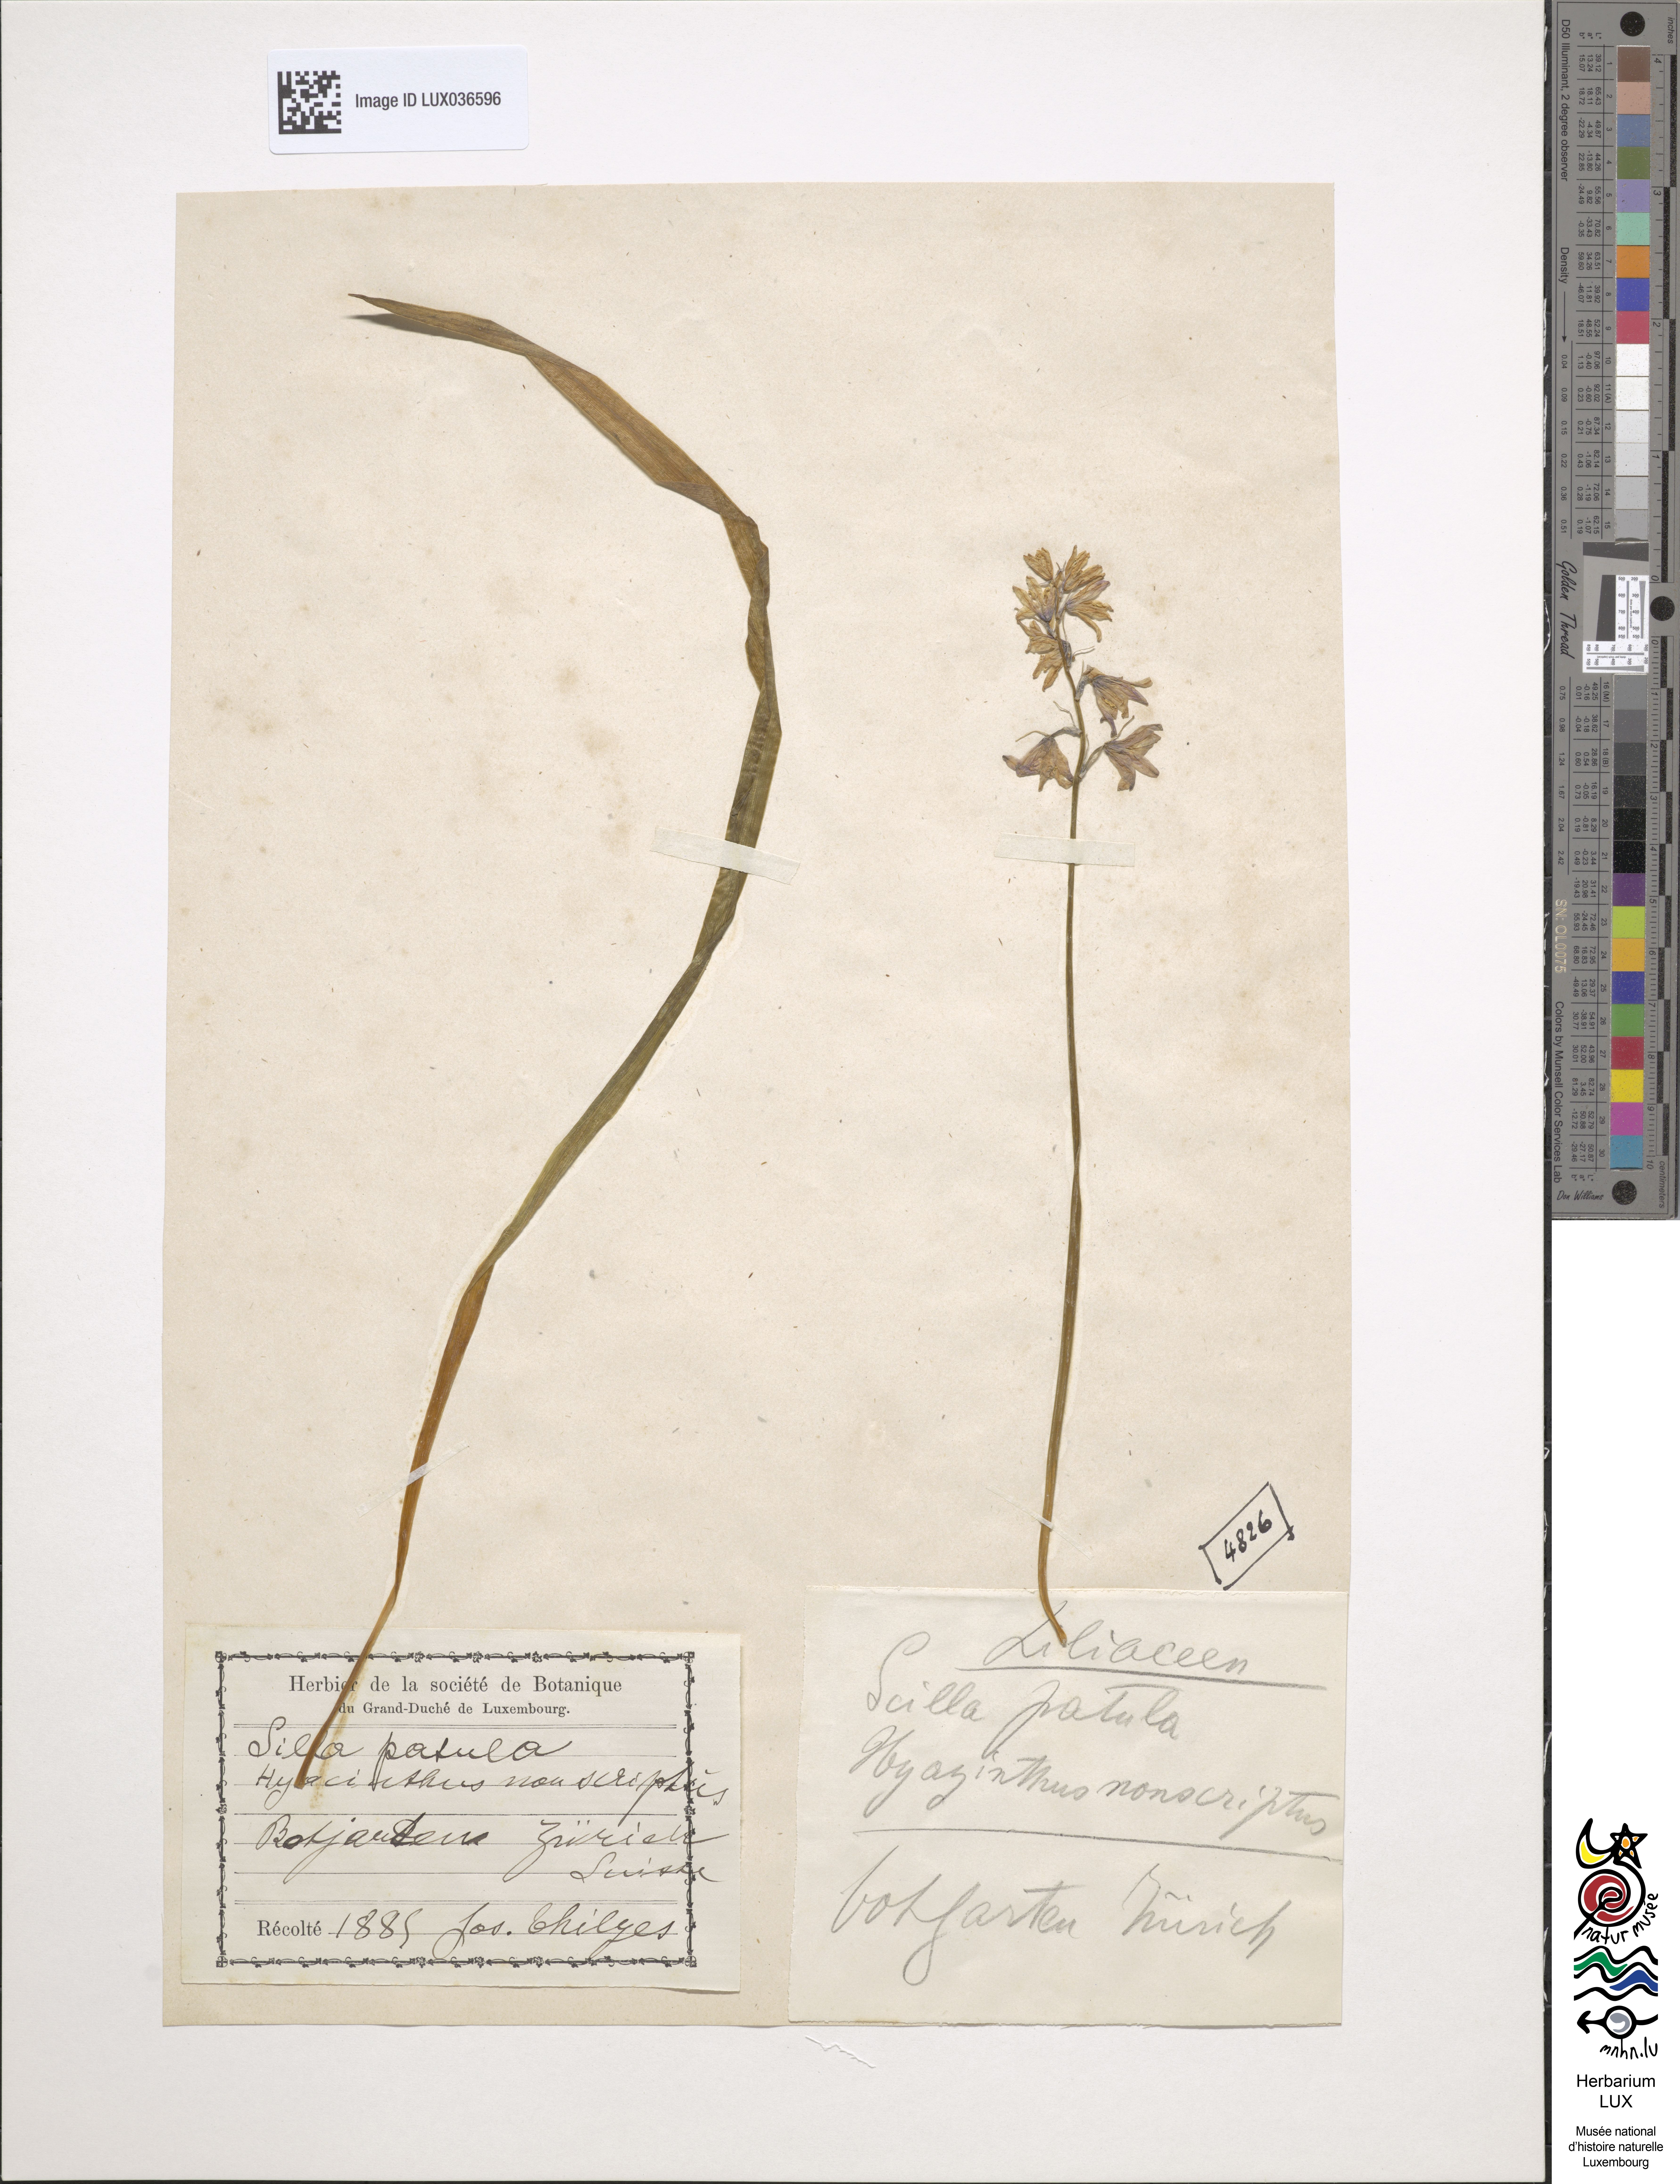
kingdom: Plantae
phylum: Tracheophyta
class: Liliopsida
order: Asparagales
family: Asparagaceae
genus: Hyacinthoides
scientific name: Hyacinthoides non-scripta
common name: Bluebell
